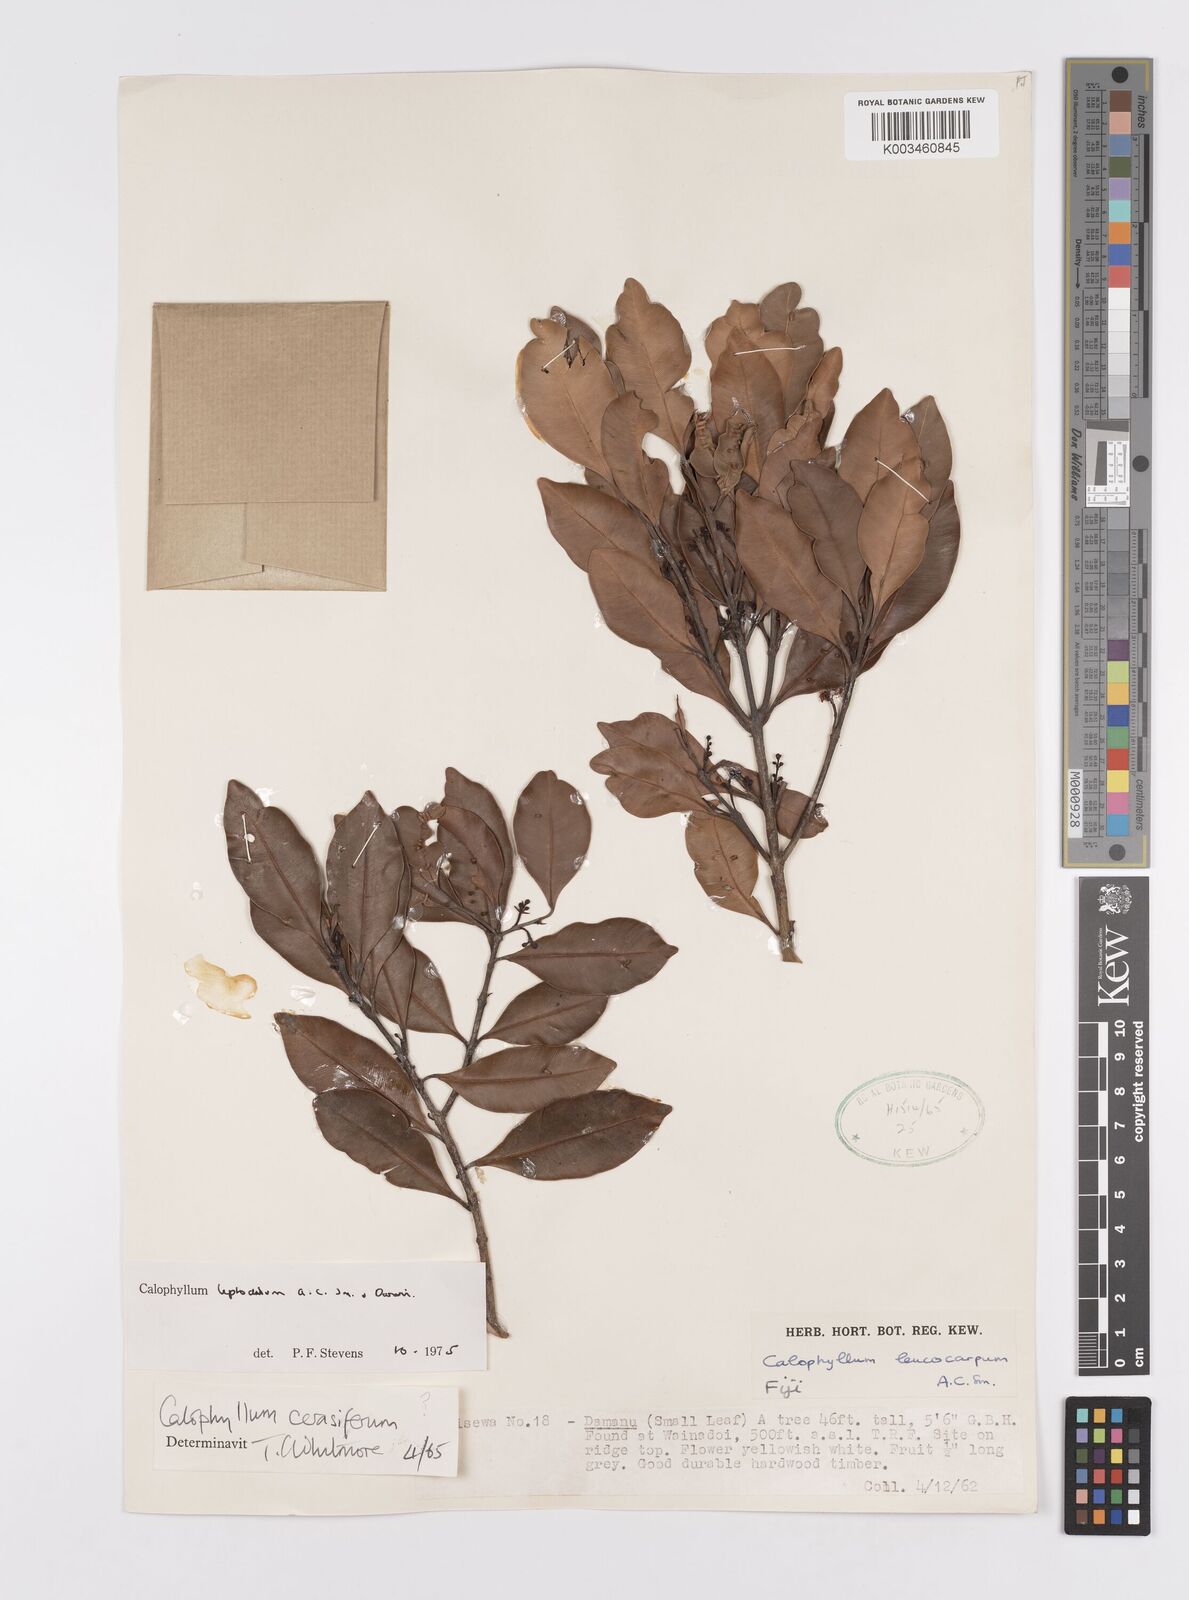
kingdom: Plantae
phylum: Tracheophyta
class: Magnoliopsida
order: Malpighiales
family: Calophyllaceae
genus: Calophyllum
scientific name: Calophyllum leptocladum
